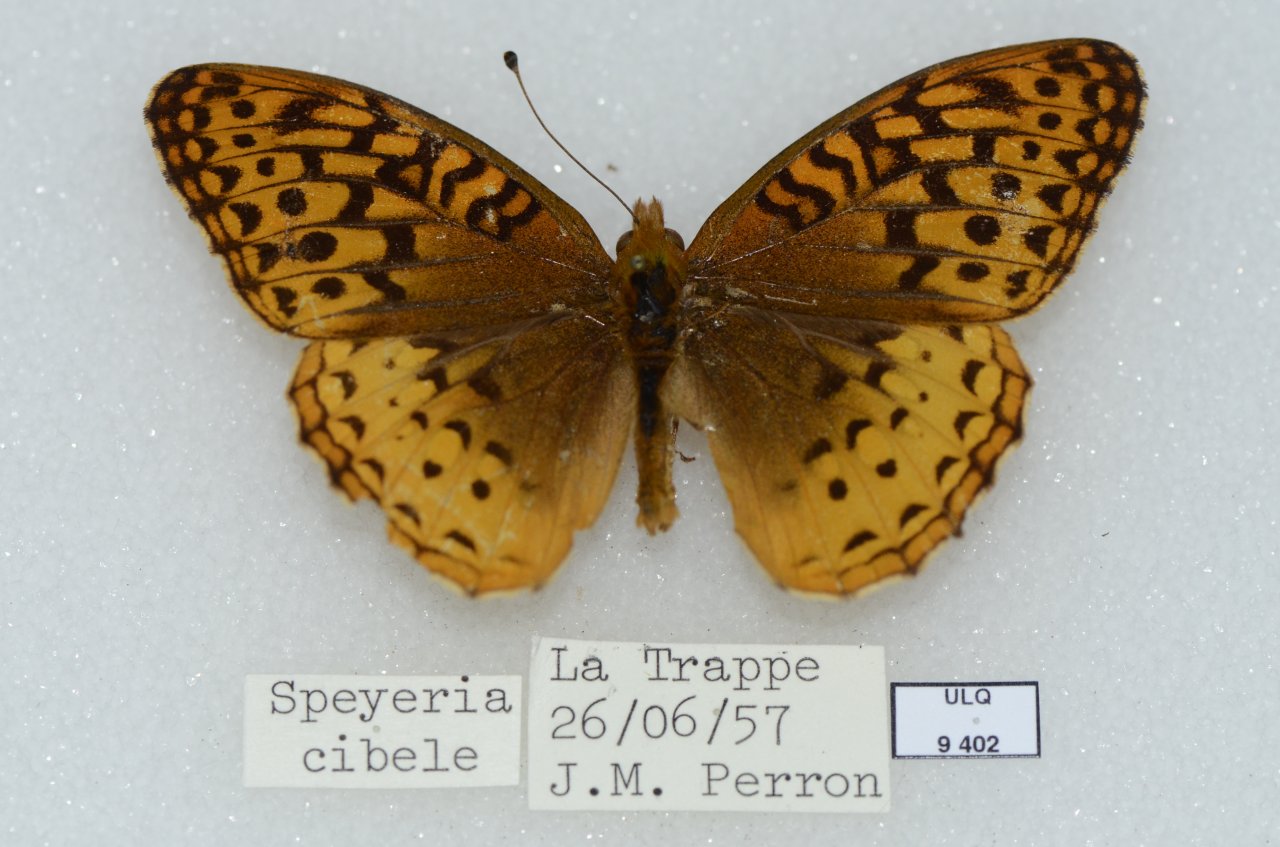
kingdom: Animalia
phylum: Arthropoda
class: Insecta
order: Lepidoptera
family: Nymphalidae
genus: Speyeria
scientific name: Speyeria cybele
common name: Great Spangled Fritillary
